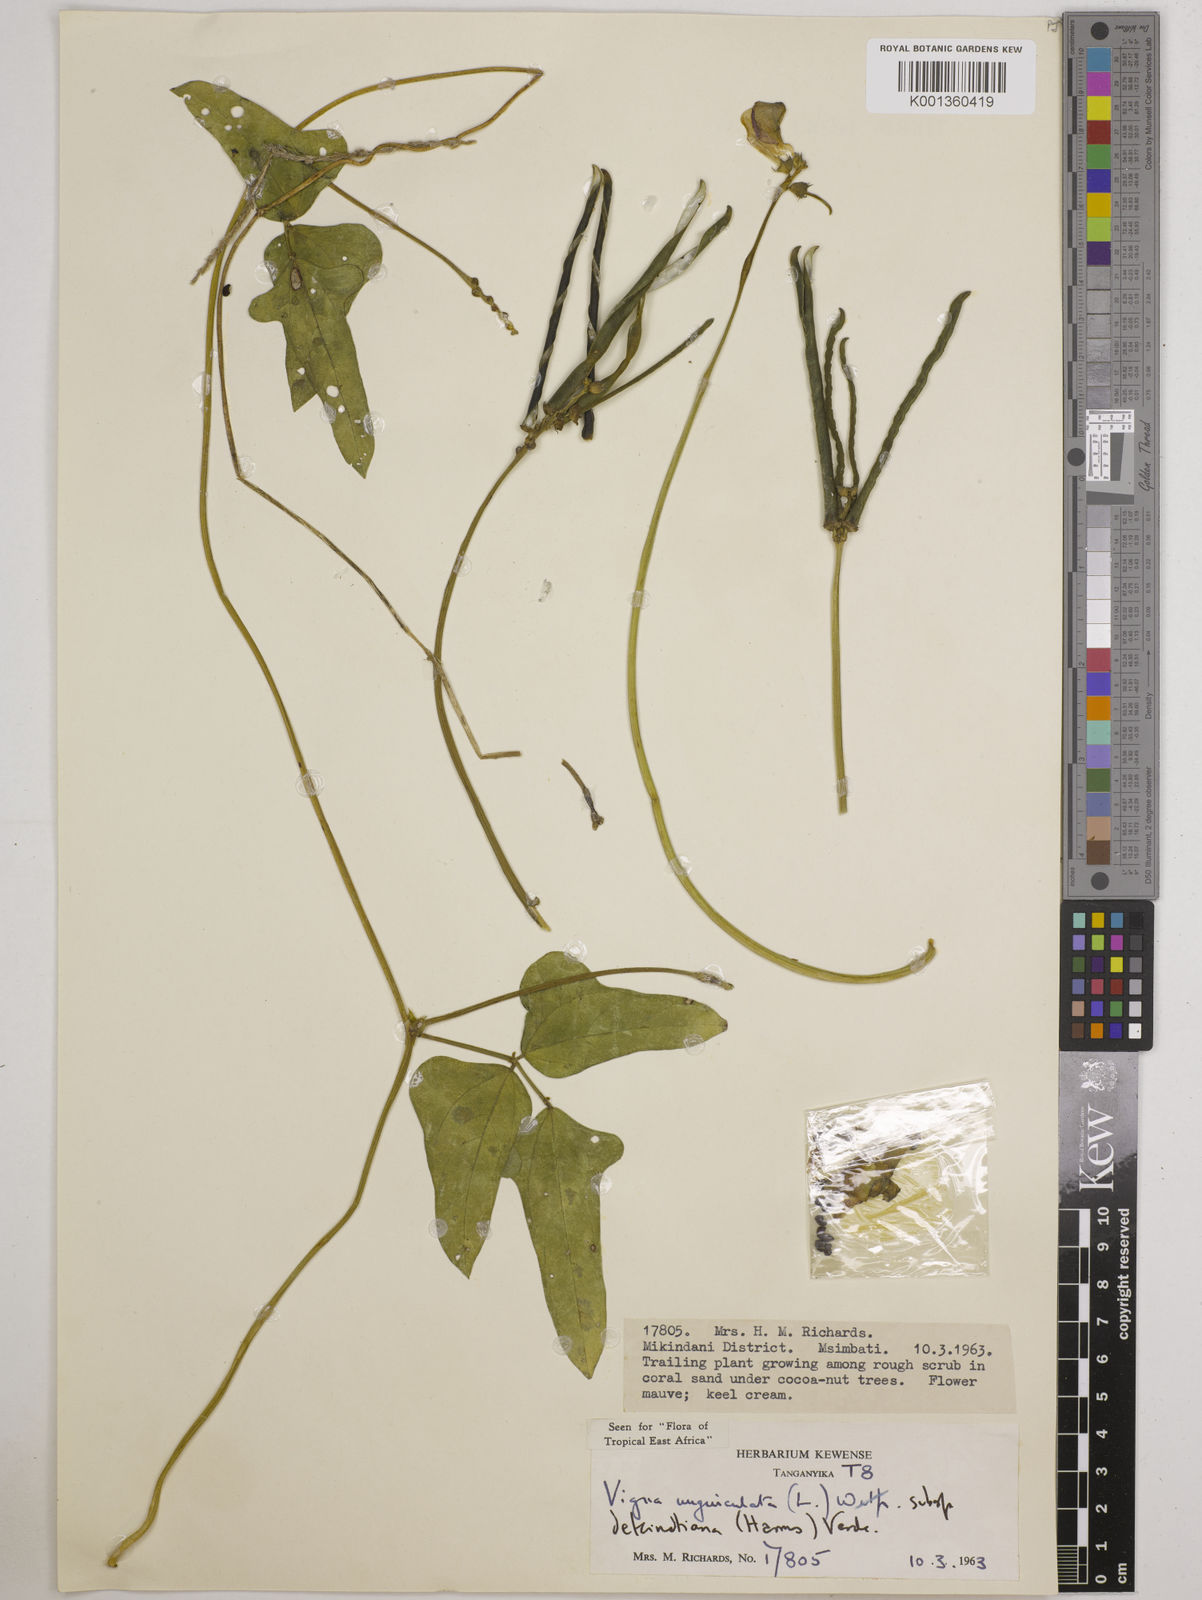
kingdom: Plantae
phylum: Tracheophyta
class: Magnoliopsida
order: Fabales
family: Fabaceae
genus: Vigna
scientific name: Vigna
